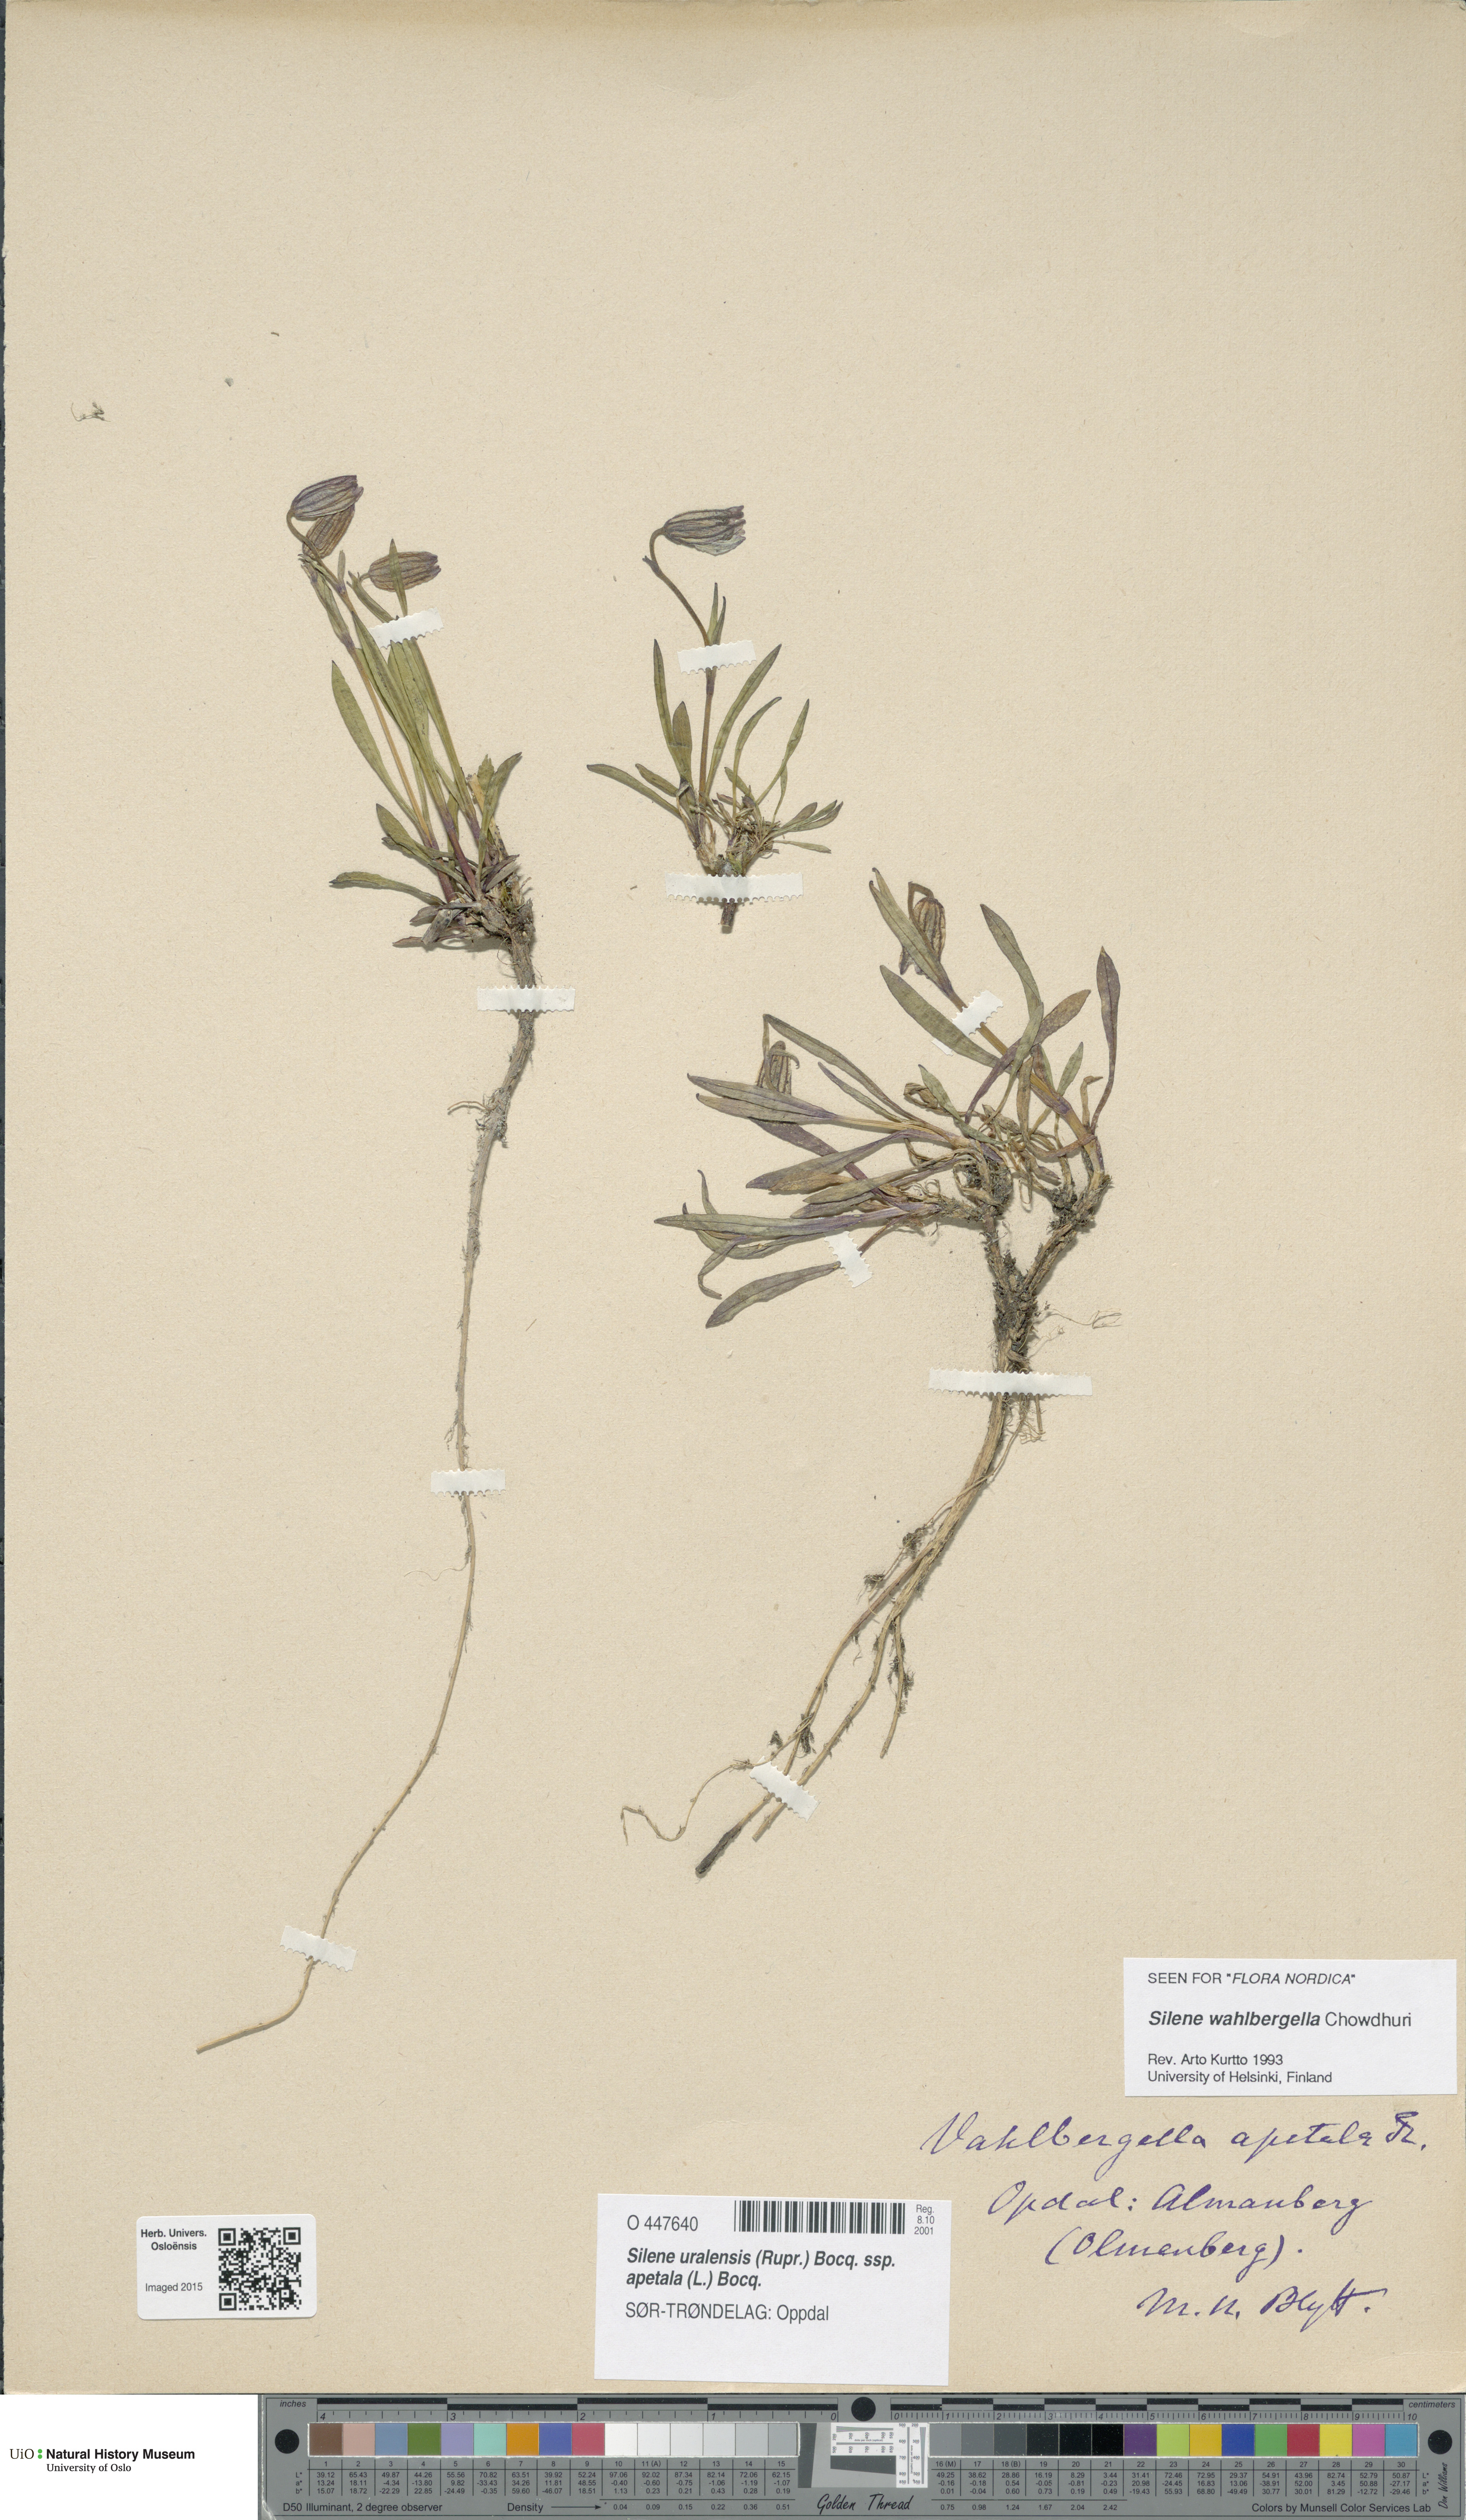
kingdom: Plantae
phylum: Tracheophyta
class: Magnoliopsida
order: Caryophyllales
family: Caryophyllaceae
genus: Silene
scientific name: Silene wahlbergella
